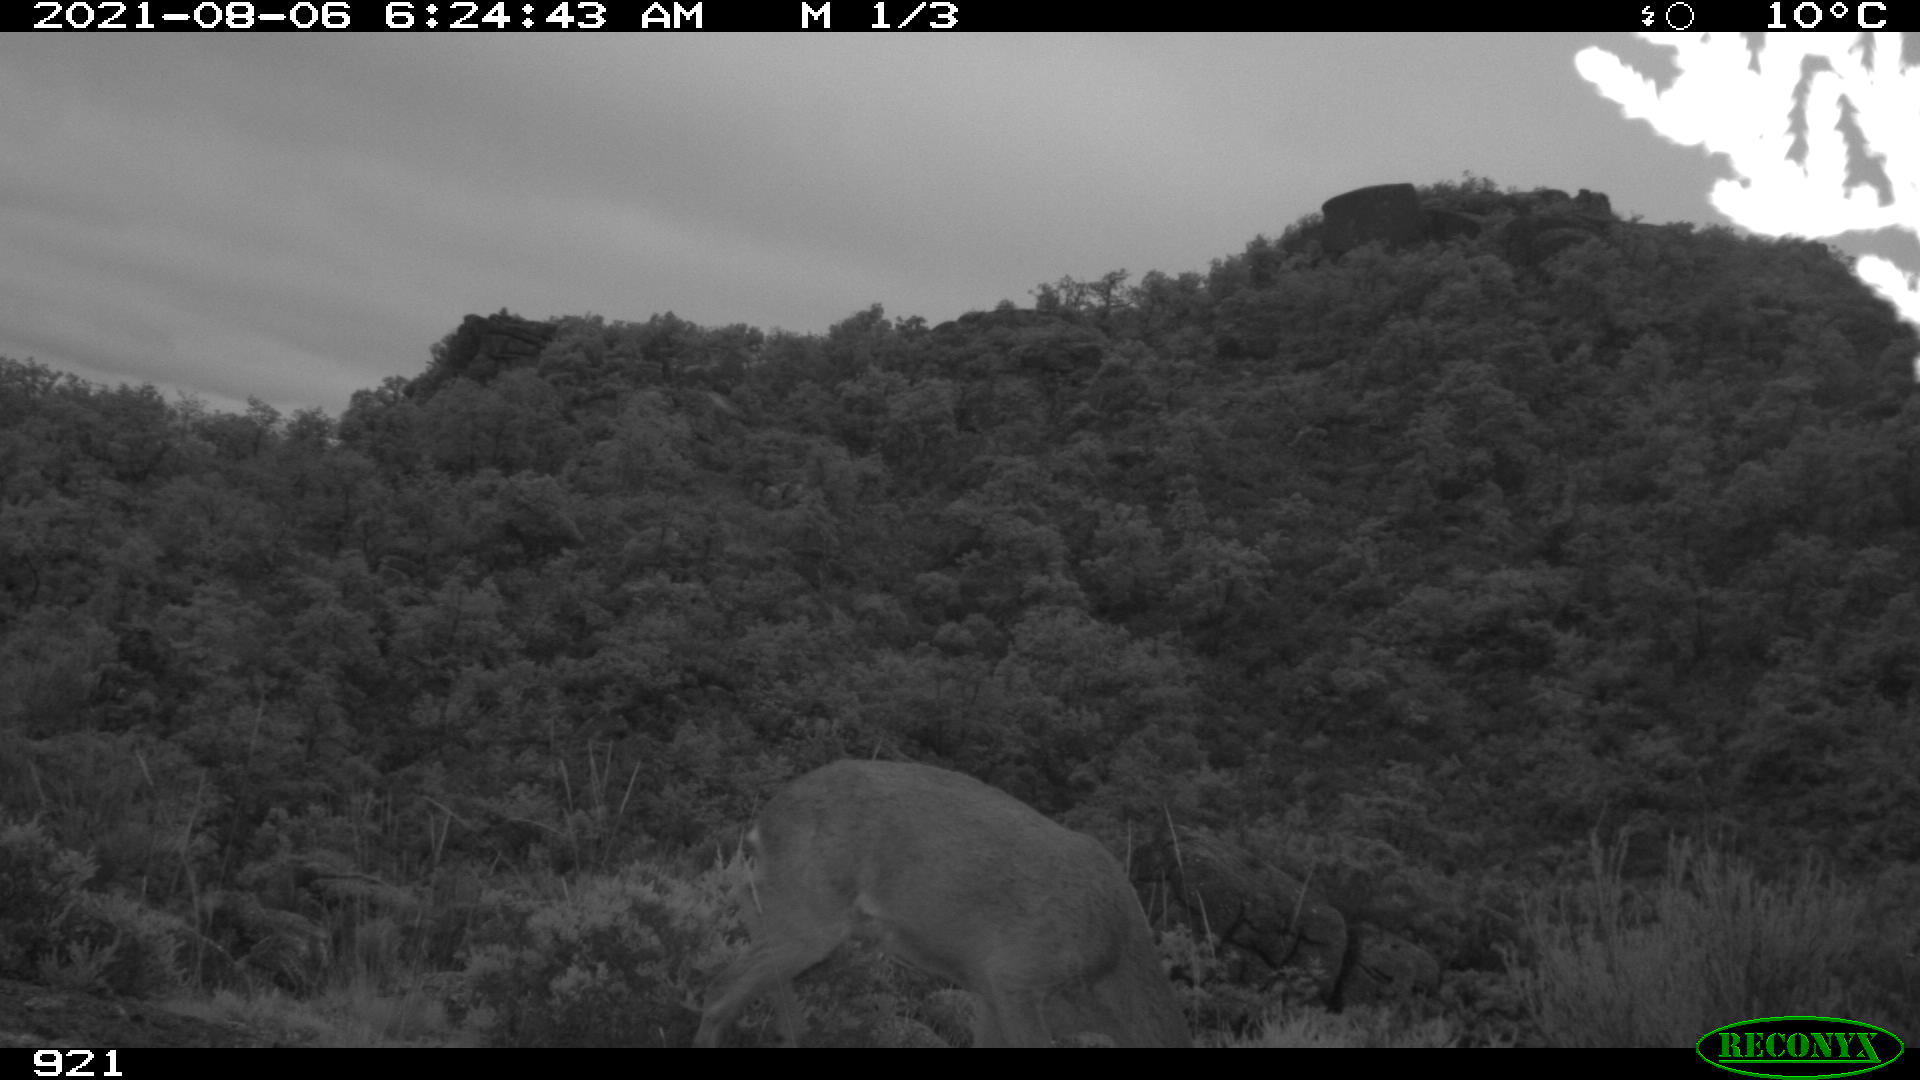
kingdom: Animalia
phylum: Chordata
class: Mammalia
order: Artiodactyla
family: Cervidae
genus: Capreolus
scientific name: Capreolus capreolus
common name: Western roe deer
